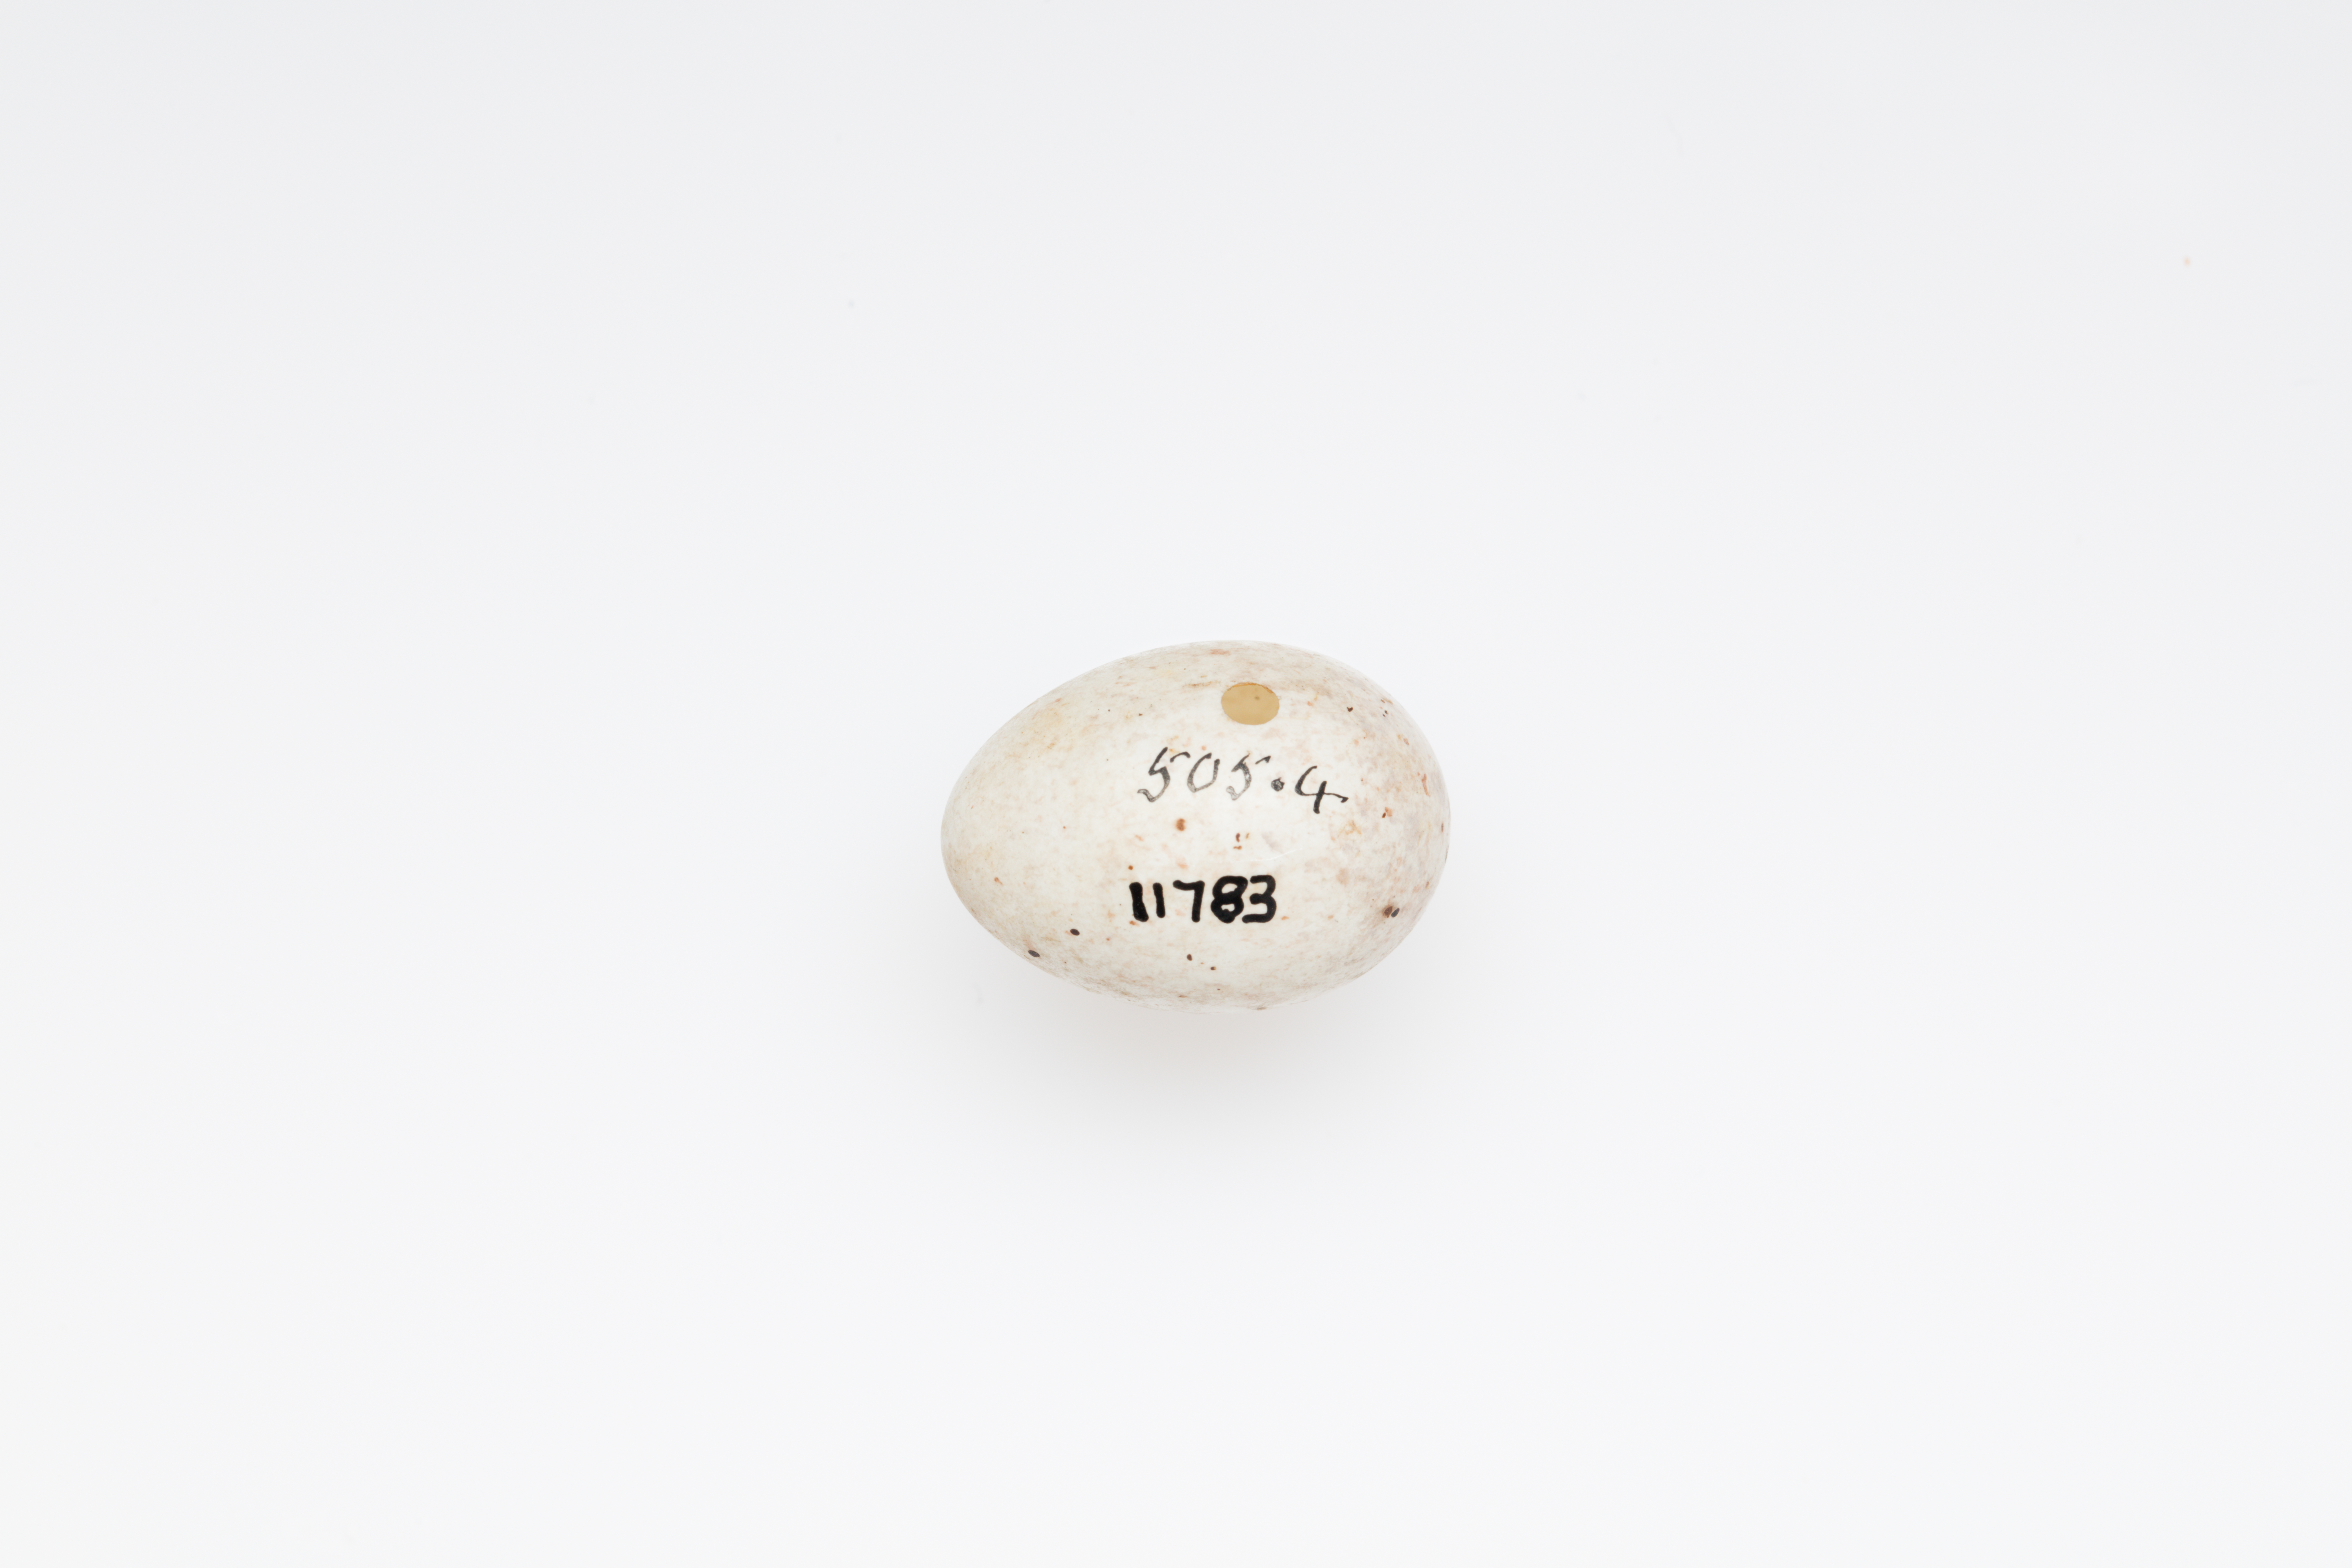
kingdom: Plantae
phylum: Tracheophyta
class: Liliopsida
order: Poales
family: Poaceae
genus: Chloris
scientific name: Chloris chloris
